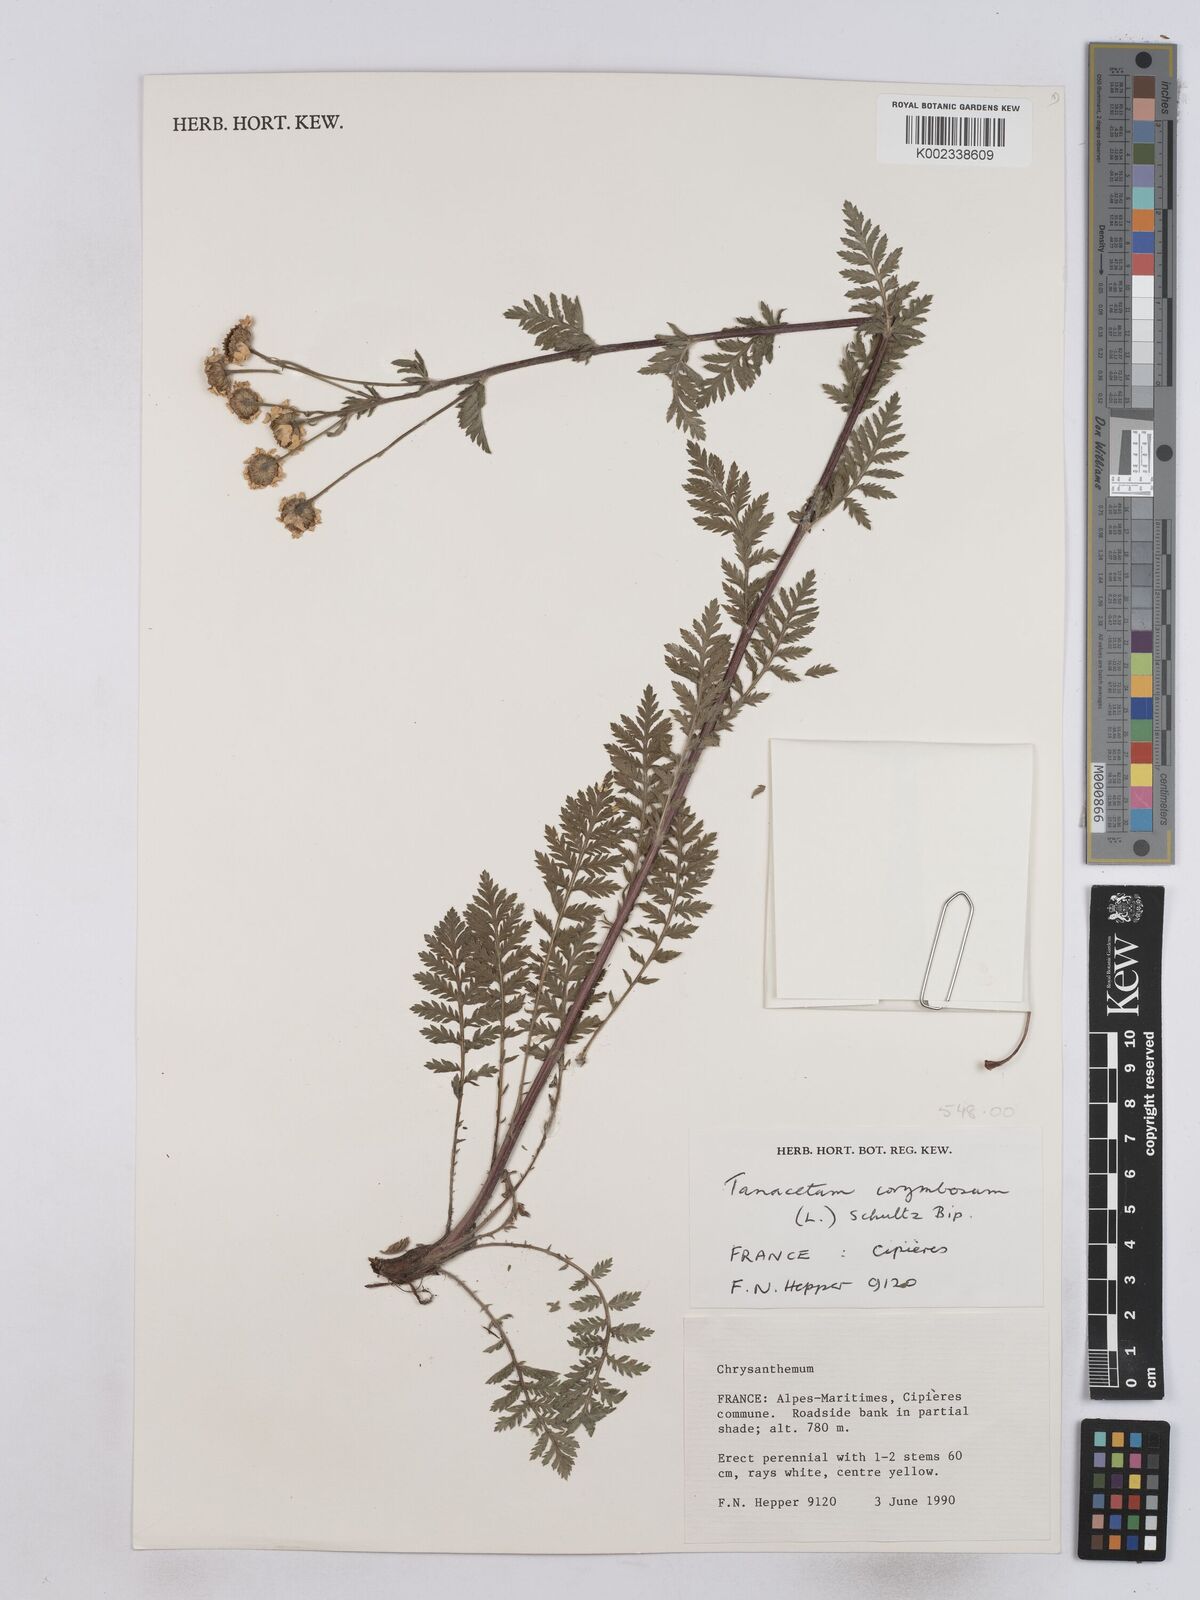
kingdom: Plantae
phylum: Tracheophyta
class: Magnoliopsida
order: Asterales
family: Asteraceae
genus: Tanacetum
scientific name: Tanacetum corymbosum
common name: Scentless feverfew
